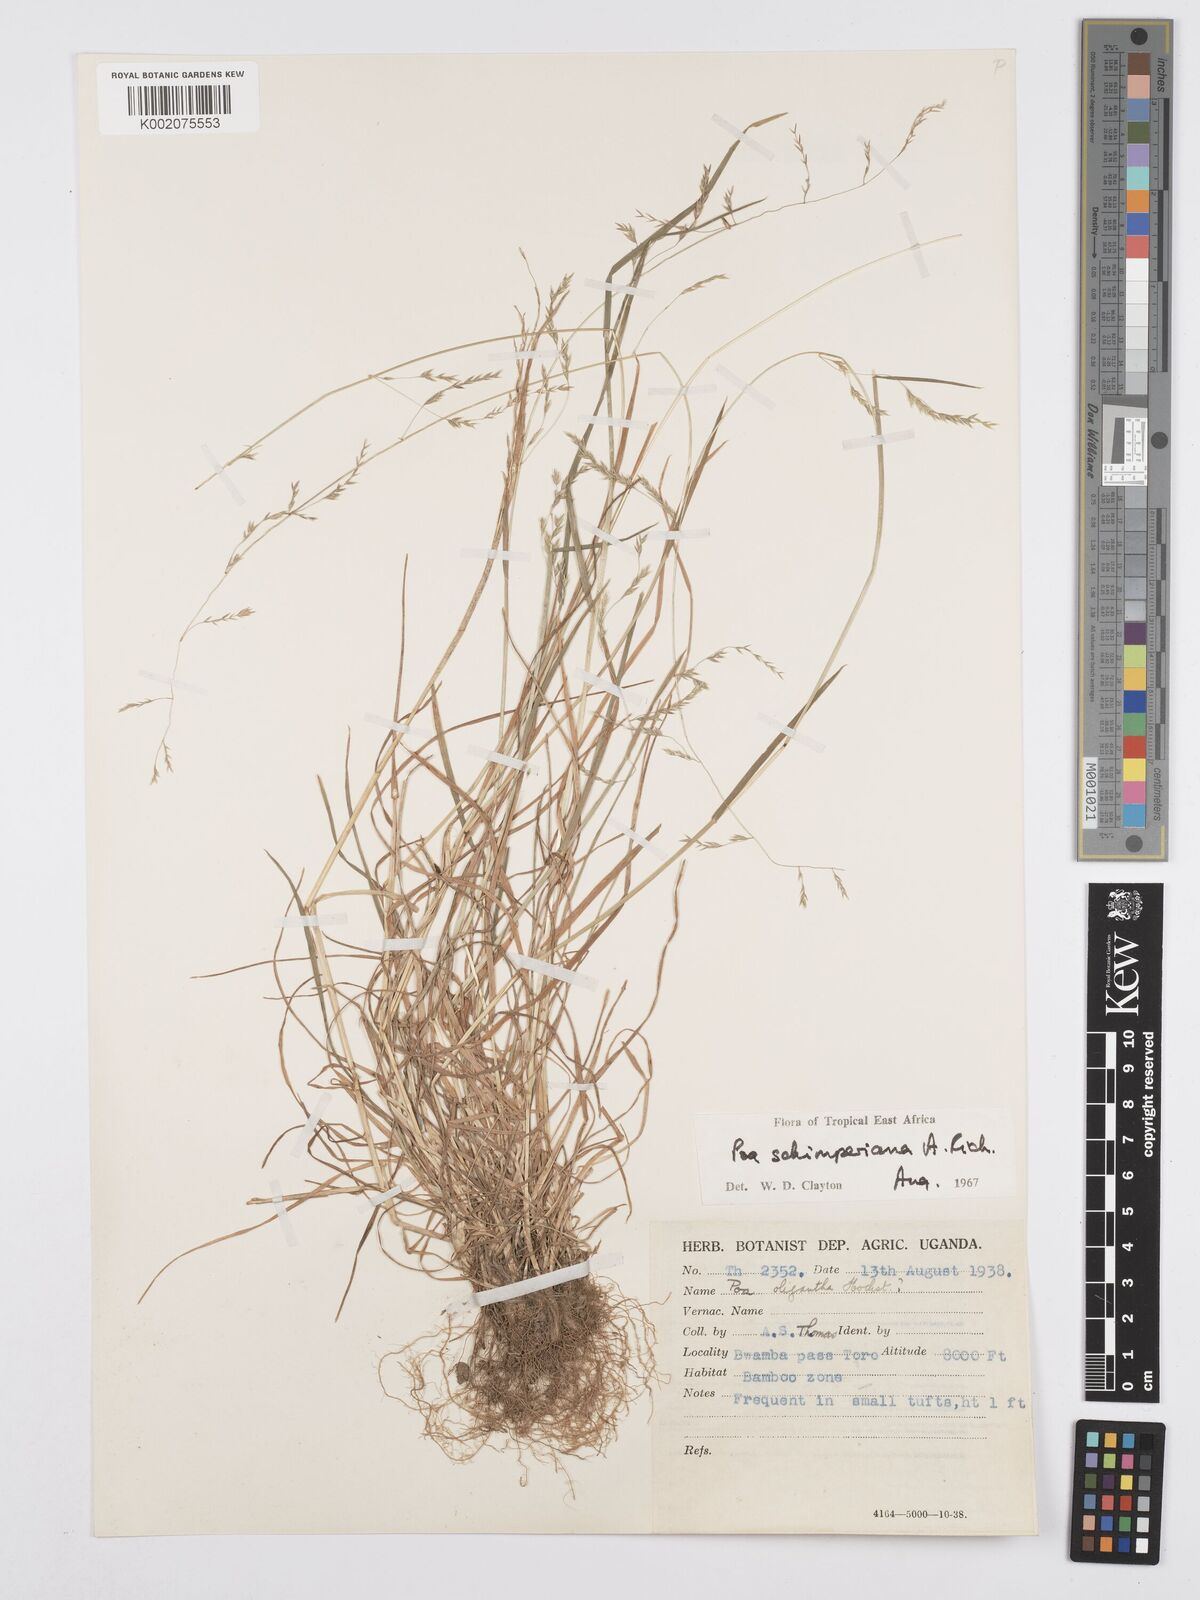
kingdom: Plantae
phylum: Tracheophyta
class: Liliopsida
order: Poales
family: Poaceae
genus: Poa
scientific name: Poa schimperiana
